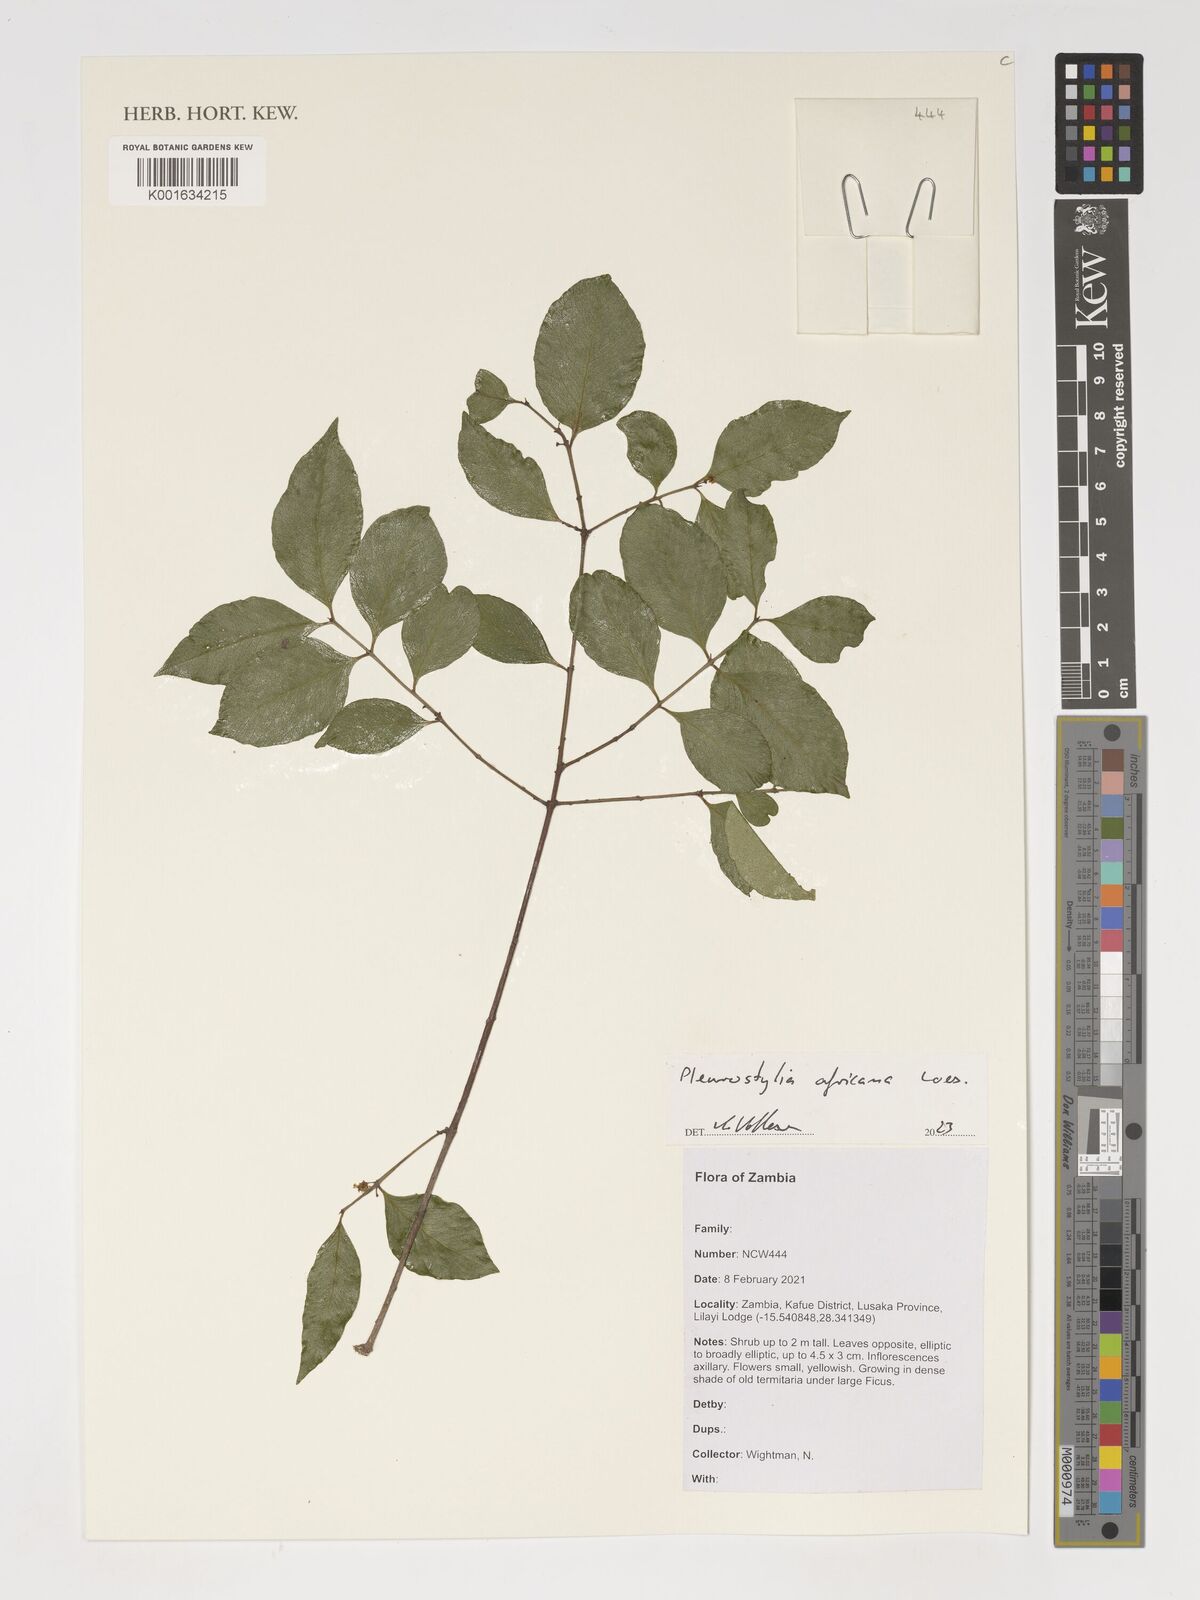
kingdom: Plantae
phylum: Tracheophyta
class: Magnoliopsida
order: Celastrales
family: Celastraceae
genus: Pleurostylia
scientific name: Pleurostylia africana
